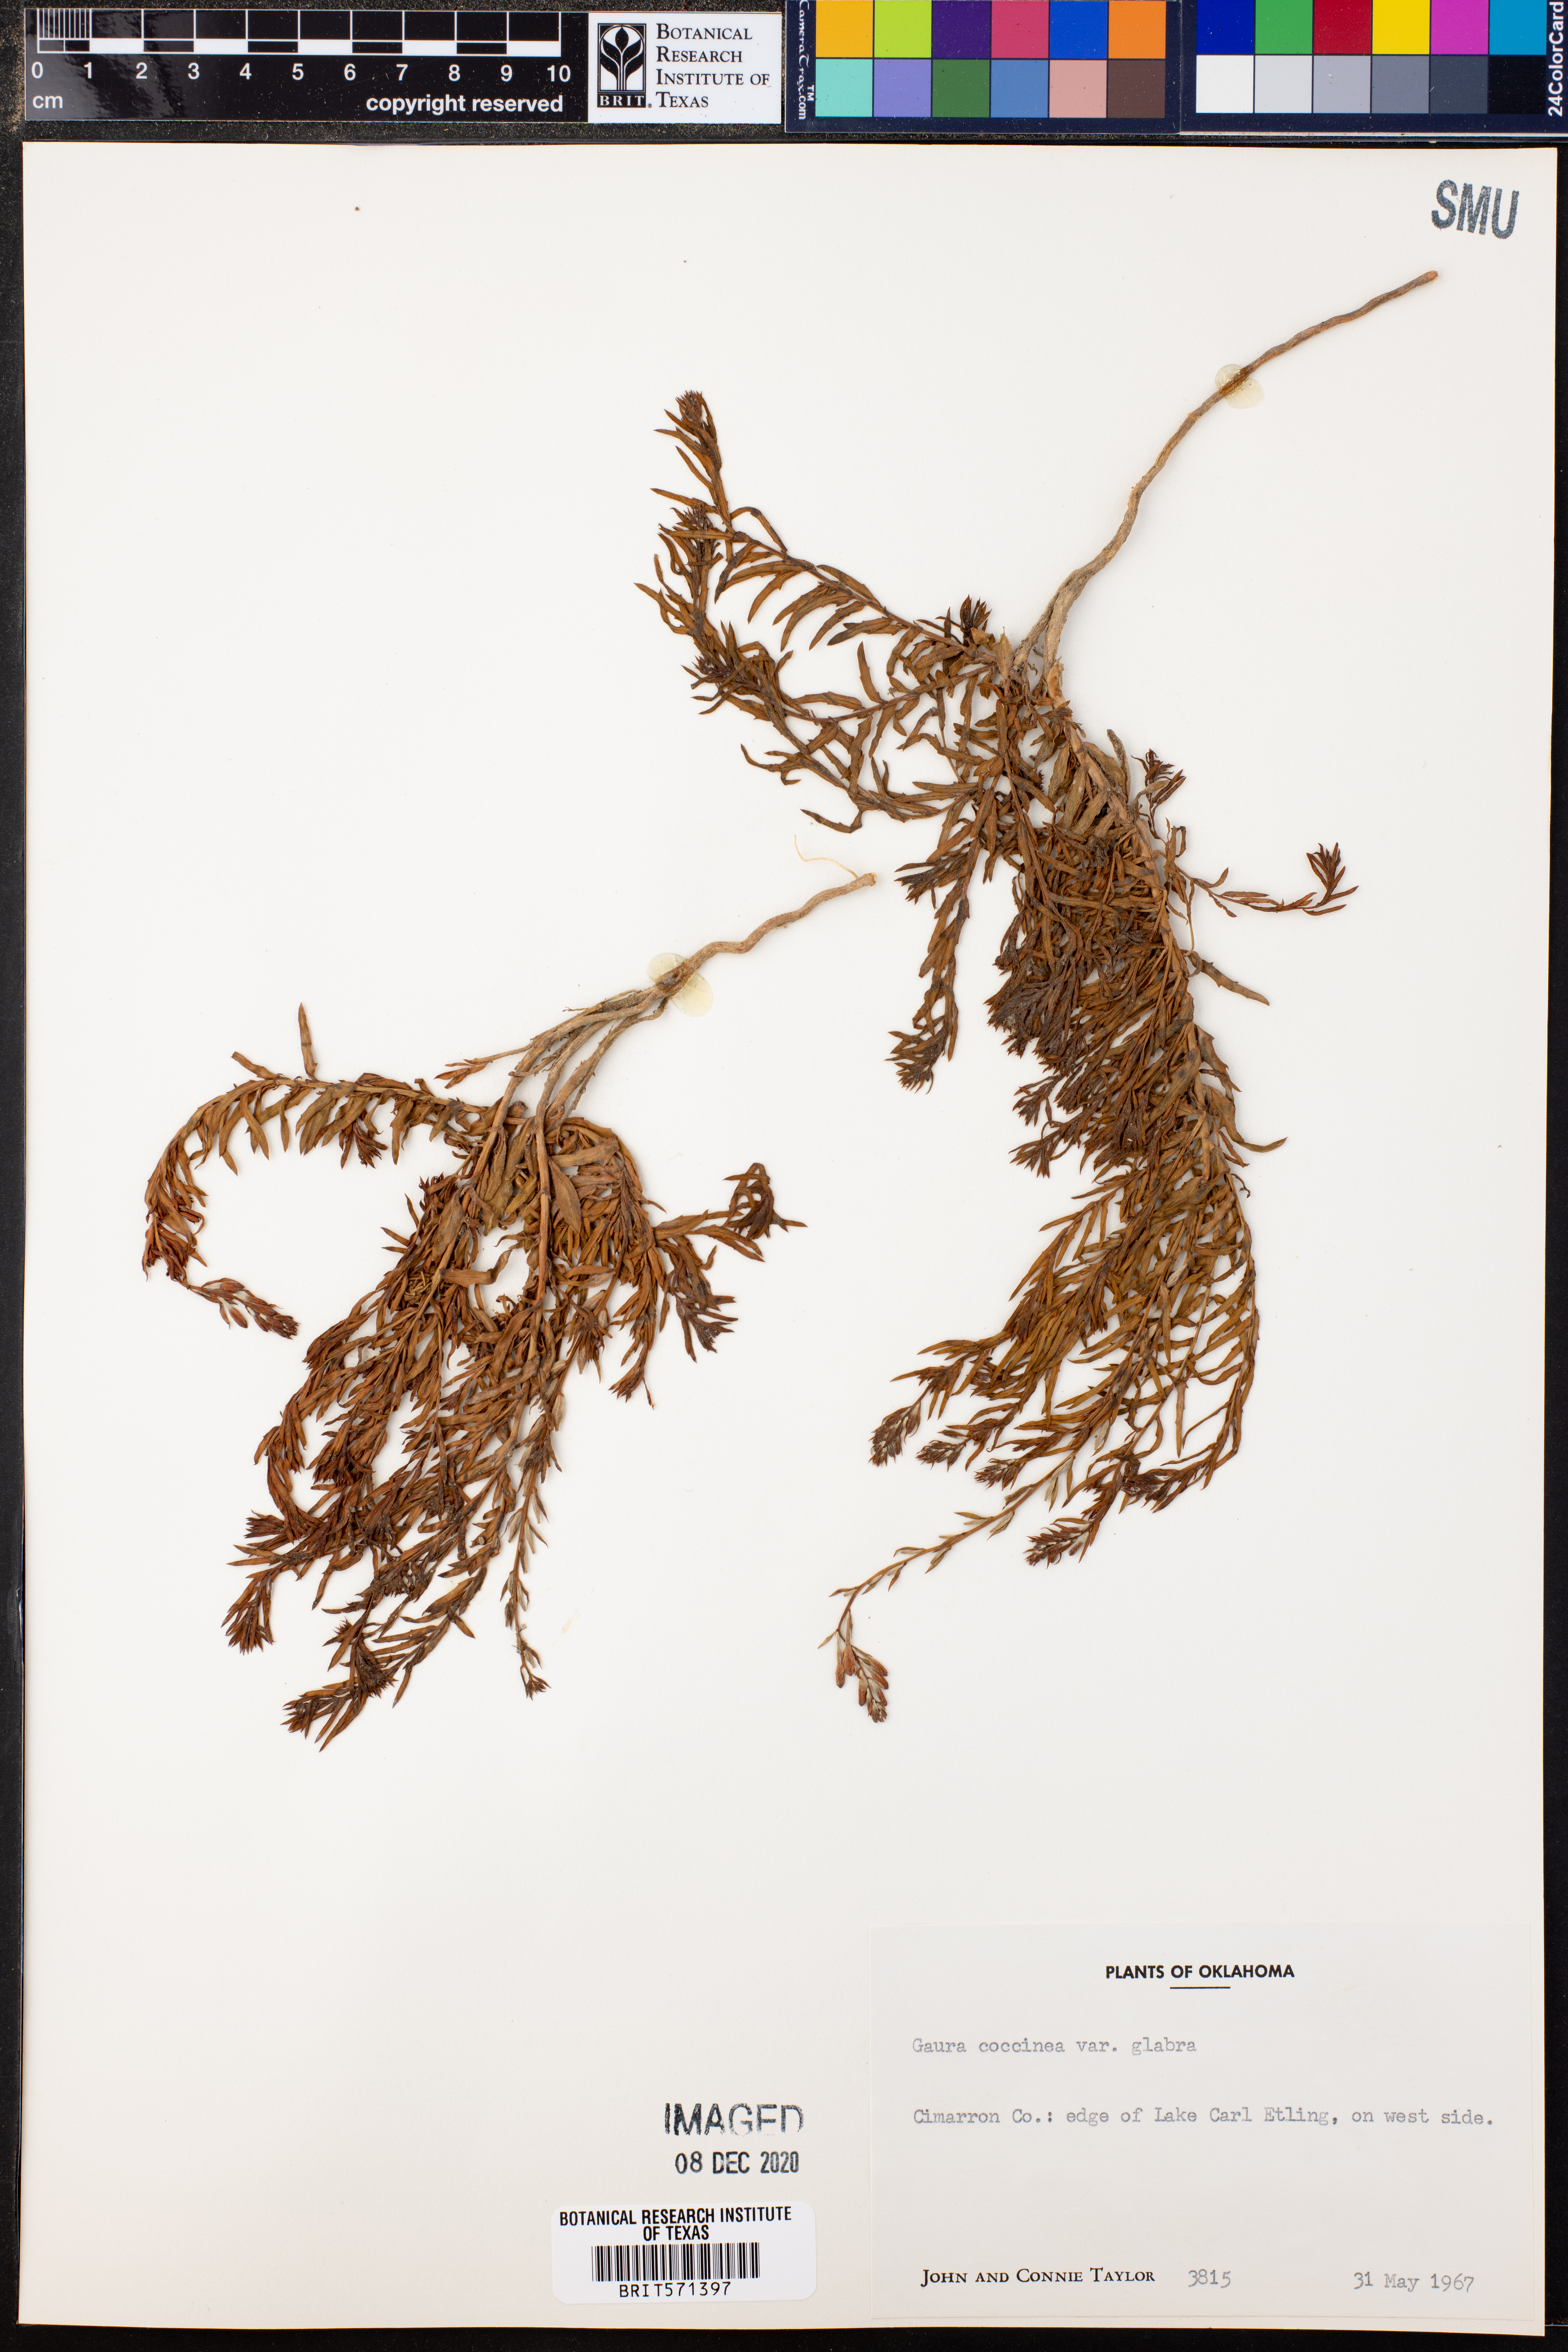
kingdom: Plantae
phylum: Tracheophyta
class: Magnoliopsida
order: Myrtales
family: Onagraceae
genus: Oenothera
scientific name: Oenothera suffrutescens
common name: Scarlet beeblossom
